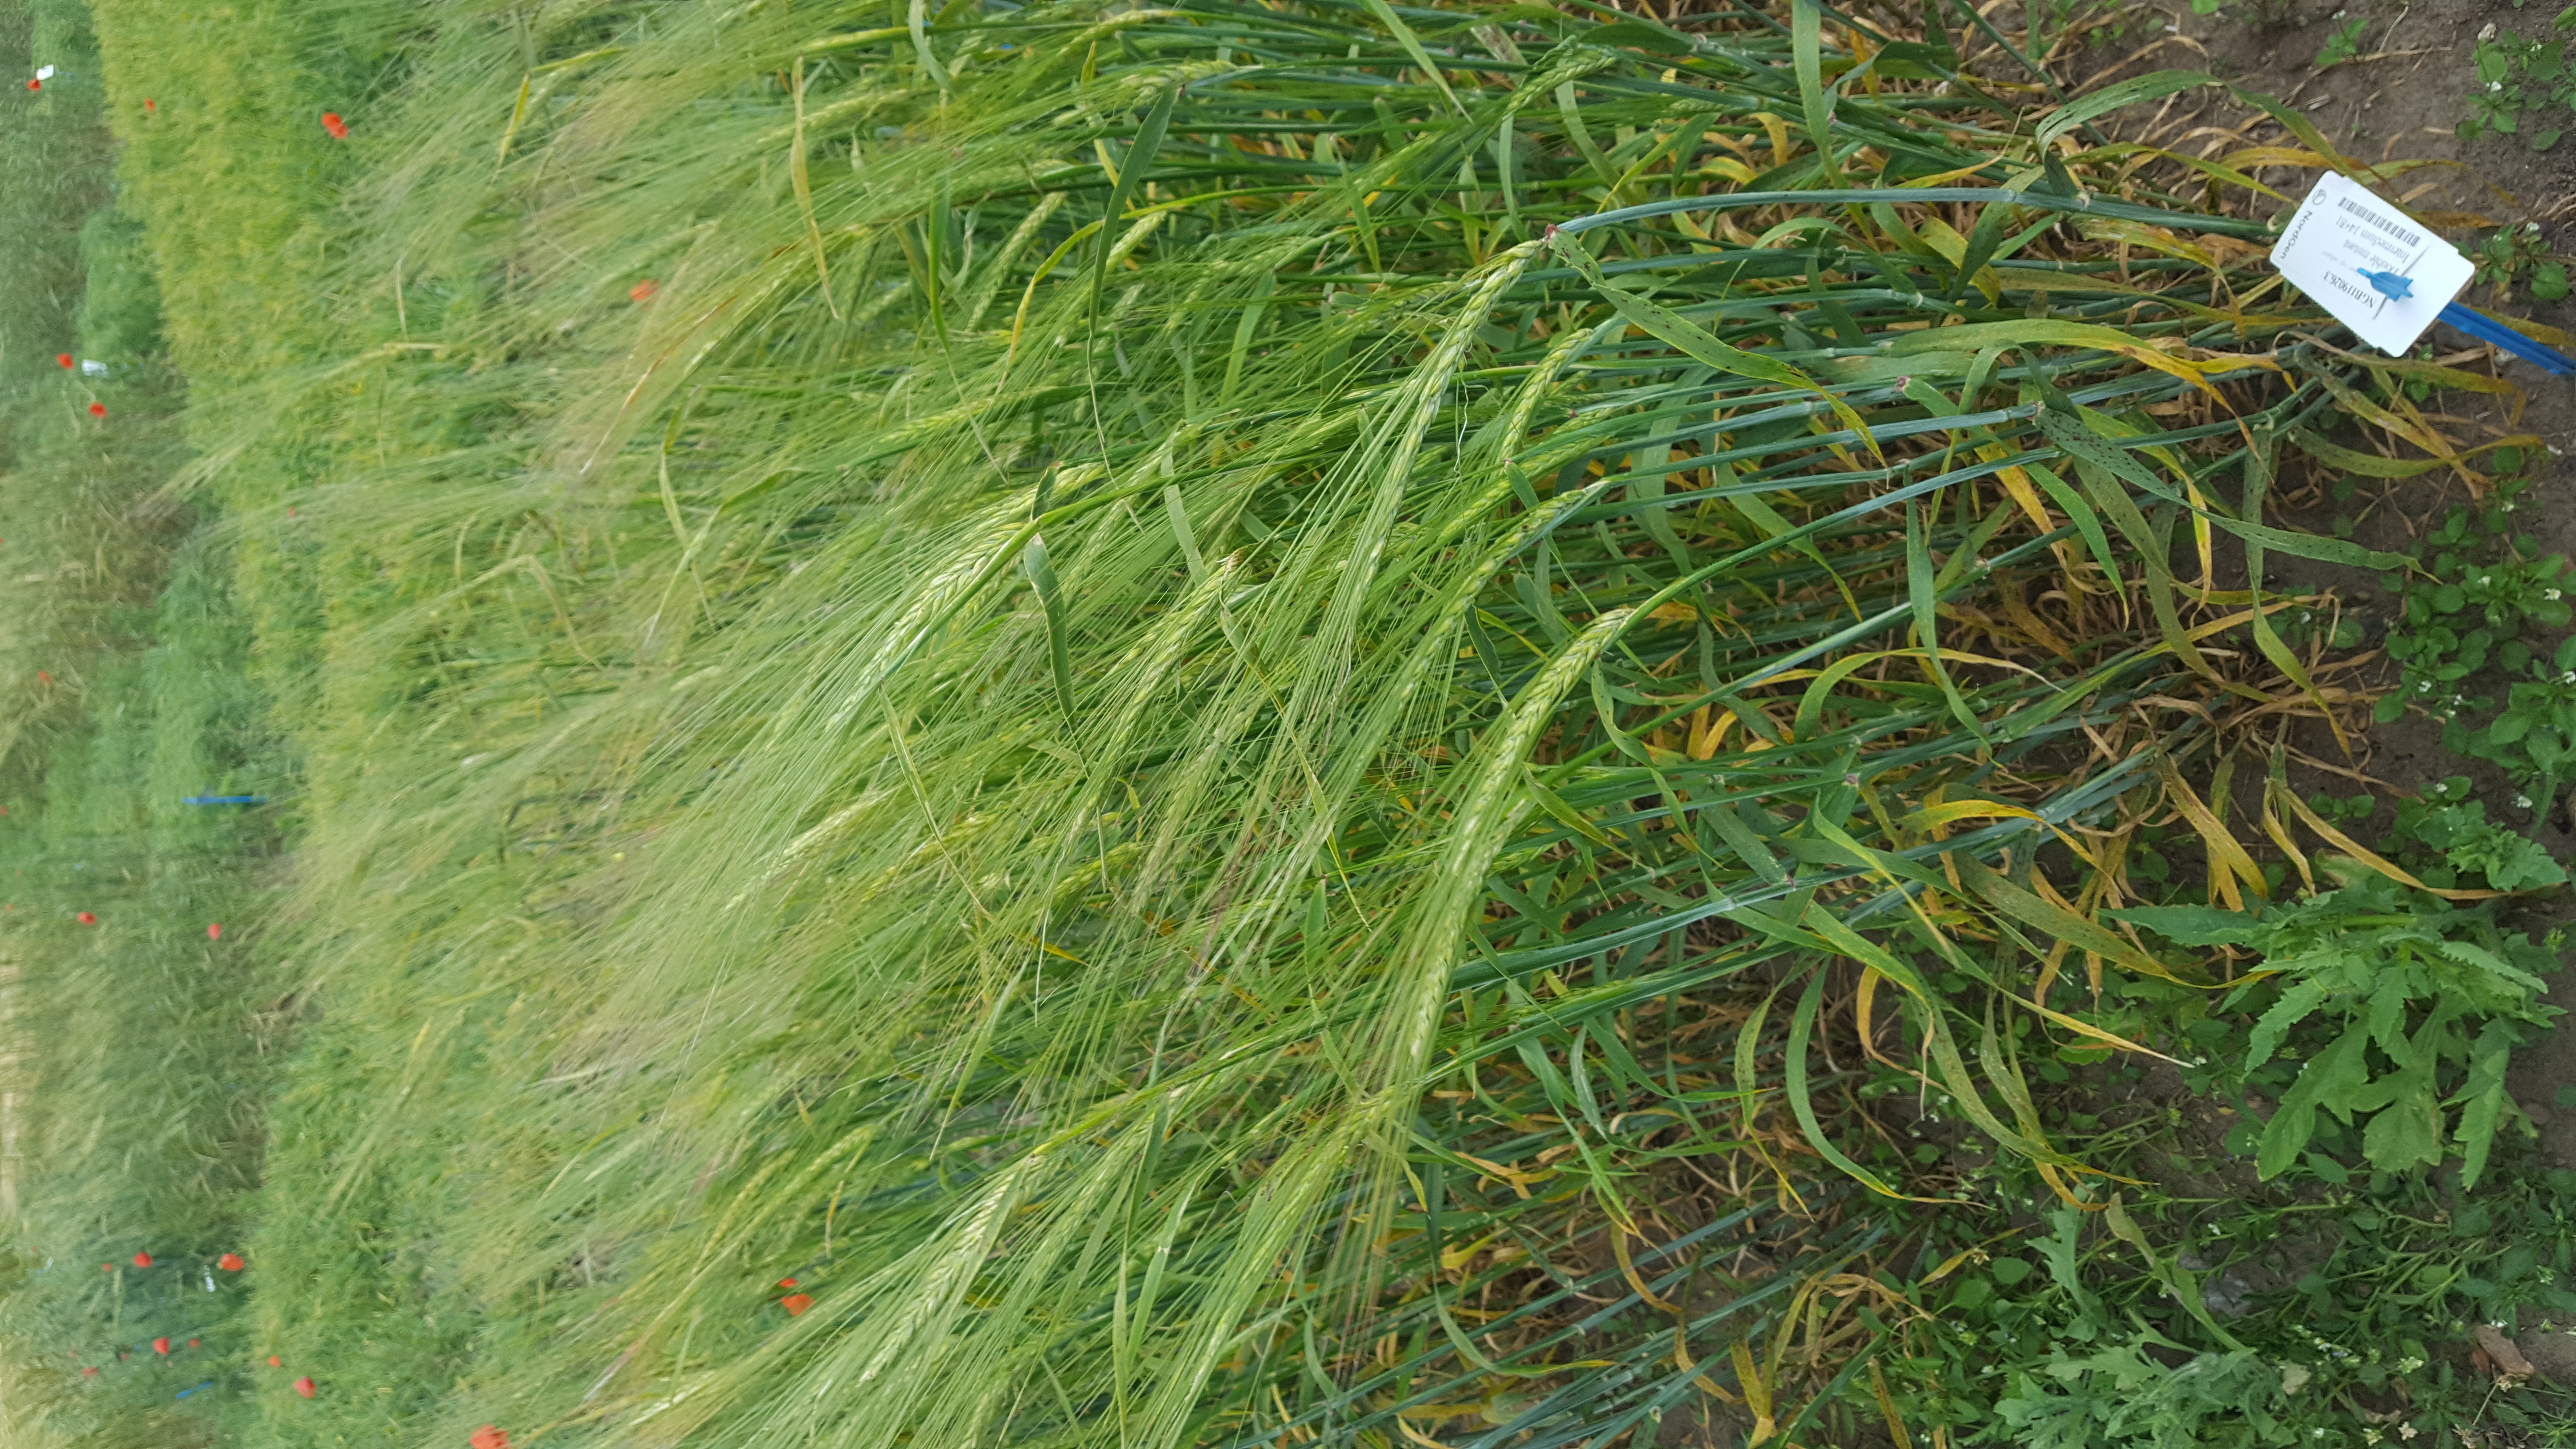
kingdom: Plantae
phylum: Tracheophyta
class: Liliopsida
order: Poales
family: Poaceae
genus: Hordeum
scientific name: Hordeum vulgare
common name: Common barley
